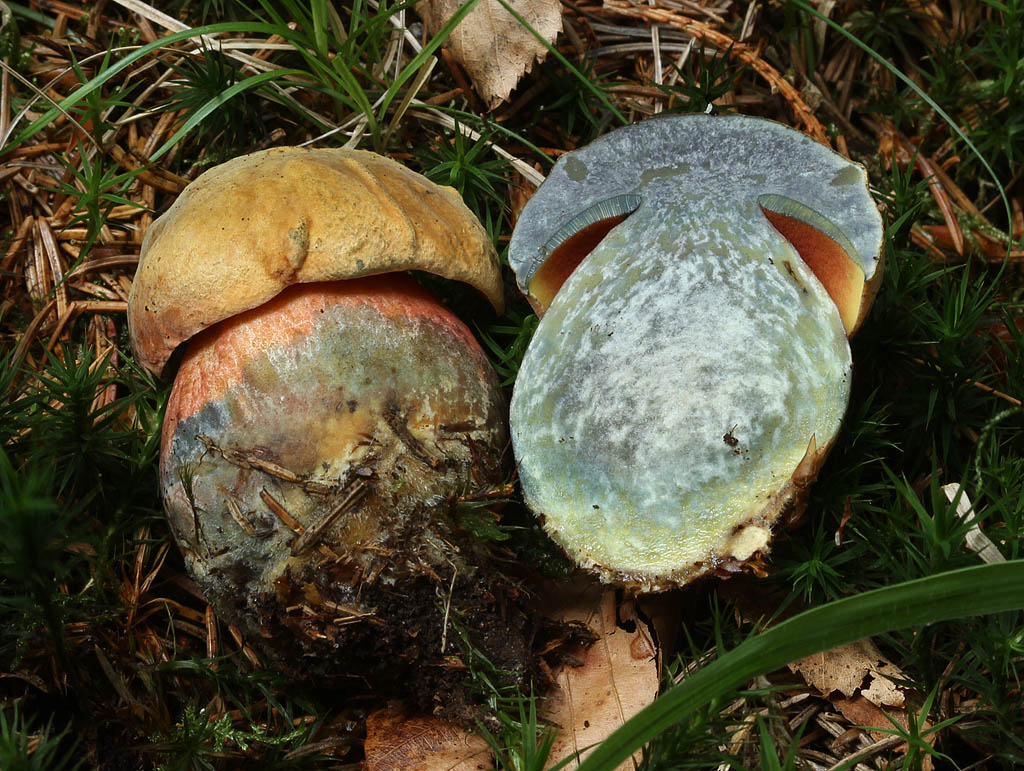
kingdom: Fungi
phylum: Basidiomycota
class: Agaricomycetes
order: Boletales
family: Boletaceae
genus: Neoboletus
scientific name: Neoboletus erythropus
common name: punktstokket indigorørhat
